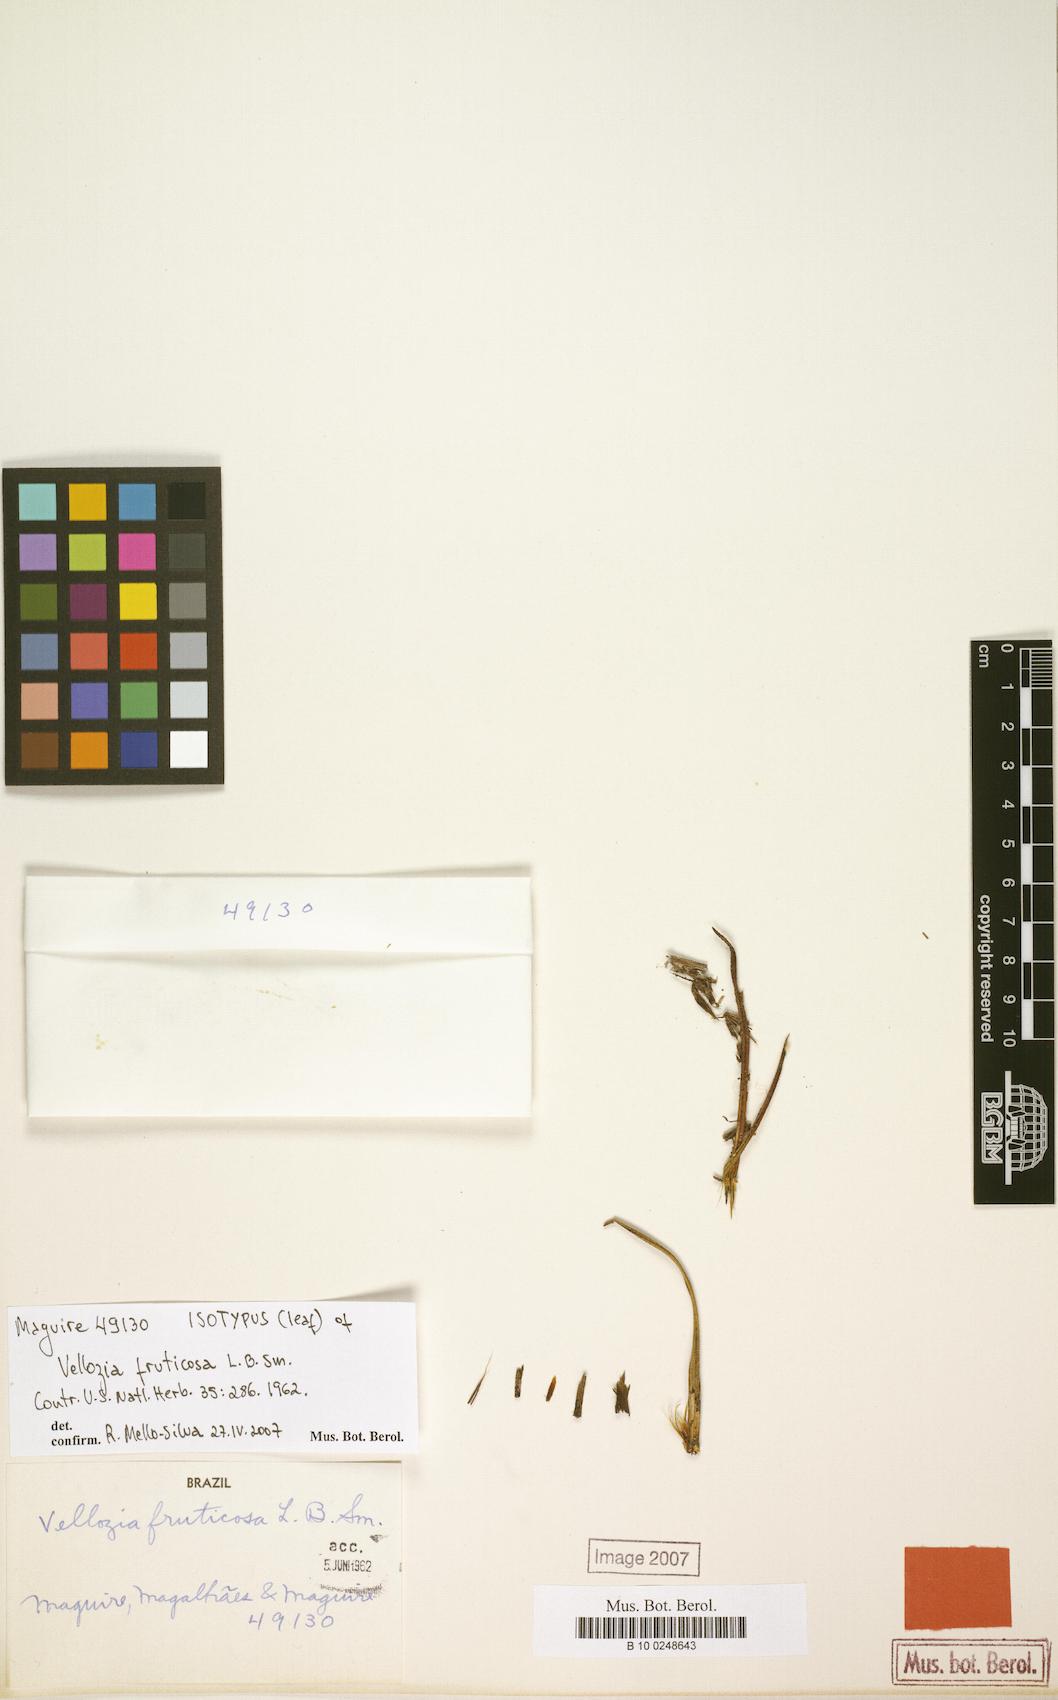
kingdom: Plantae
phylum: Tracheophyta
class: Liliopsida
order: Pandanales
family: Velloziaceae
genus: Vellozia
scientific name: Vellozia fruticosa
